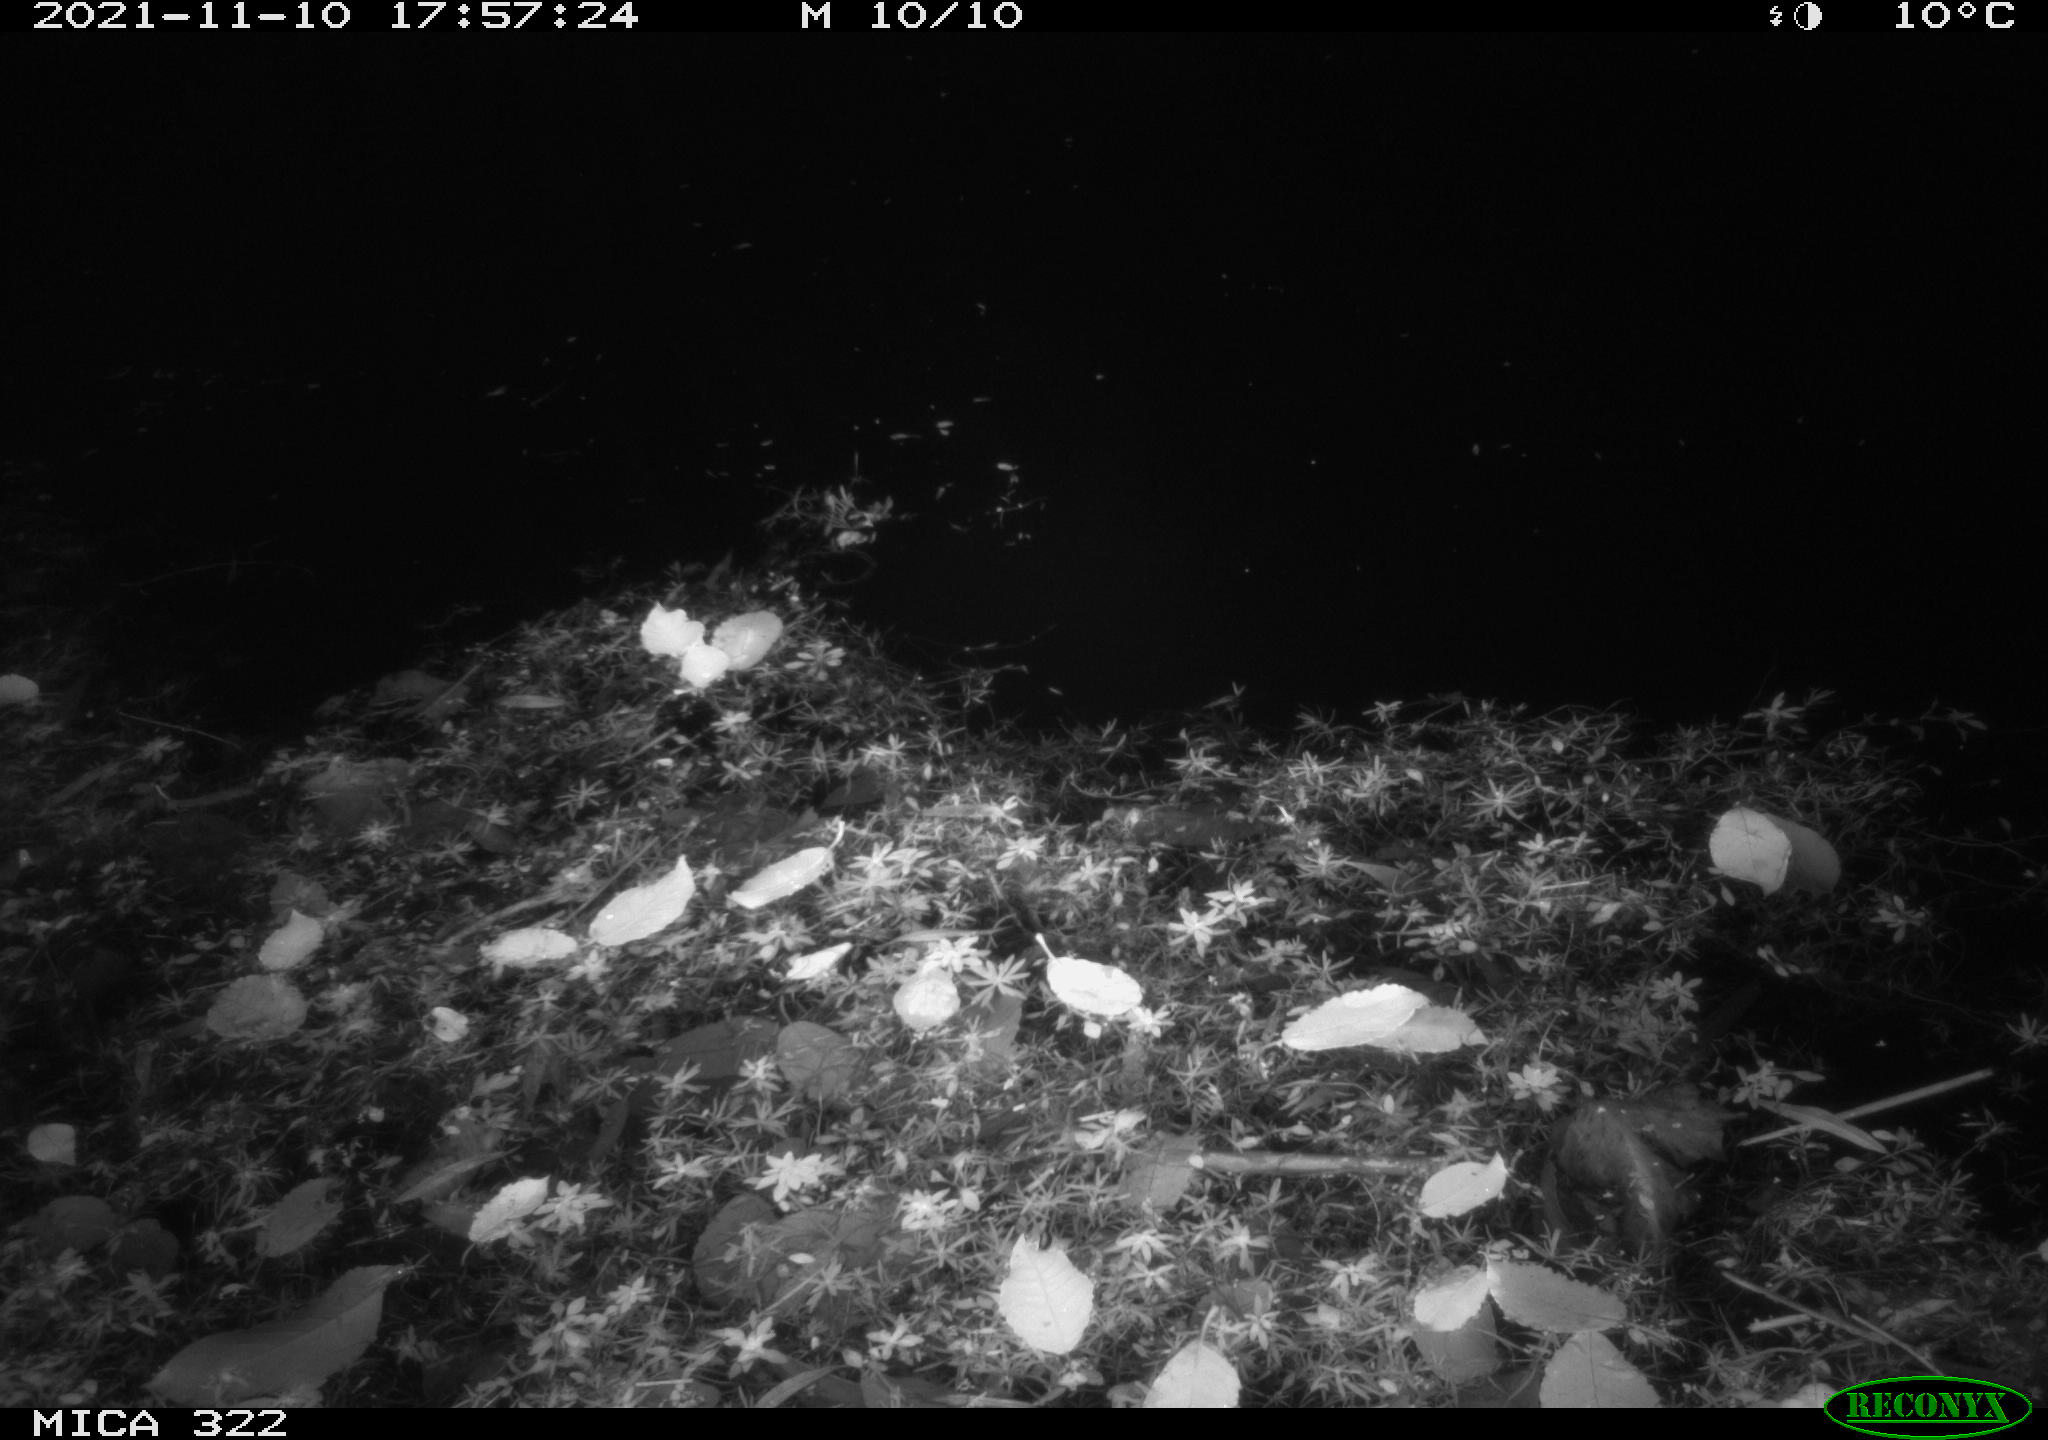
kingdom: Animalia
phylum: Chordata
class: Aves
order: Gruiformes
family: Rallidae
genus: Fulica
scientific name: Fulica atra
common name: Eurasian coot
